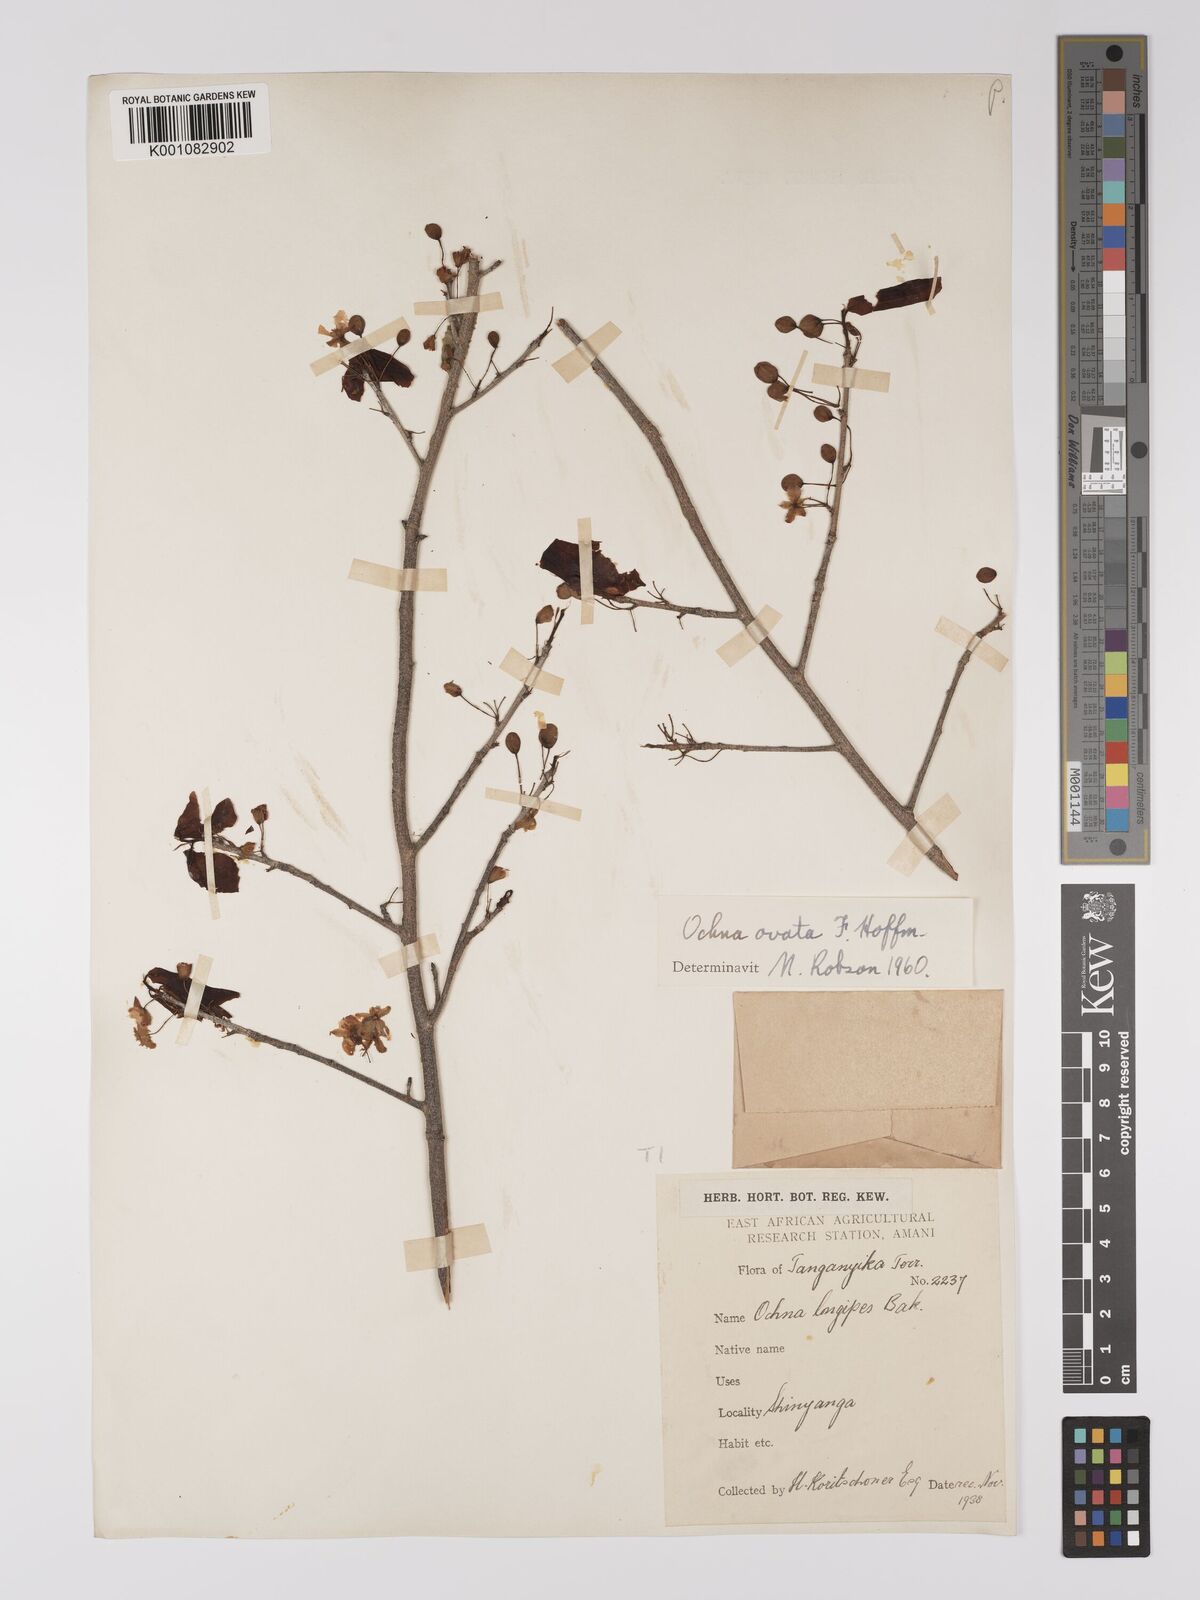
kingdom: Plantae
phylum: Tracheophyta
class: Magnoliopsida
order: Malpighiales
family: Ochnaceae
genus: Ochna
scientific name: Ochna ovata
